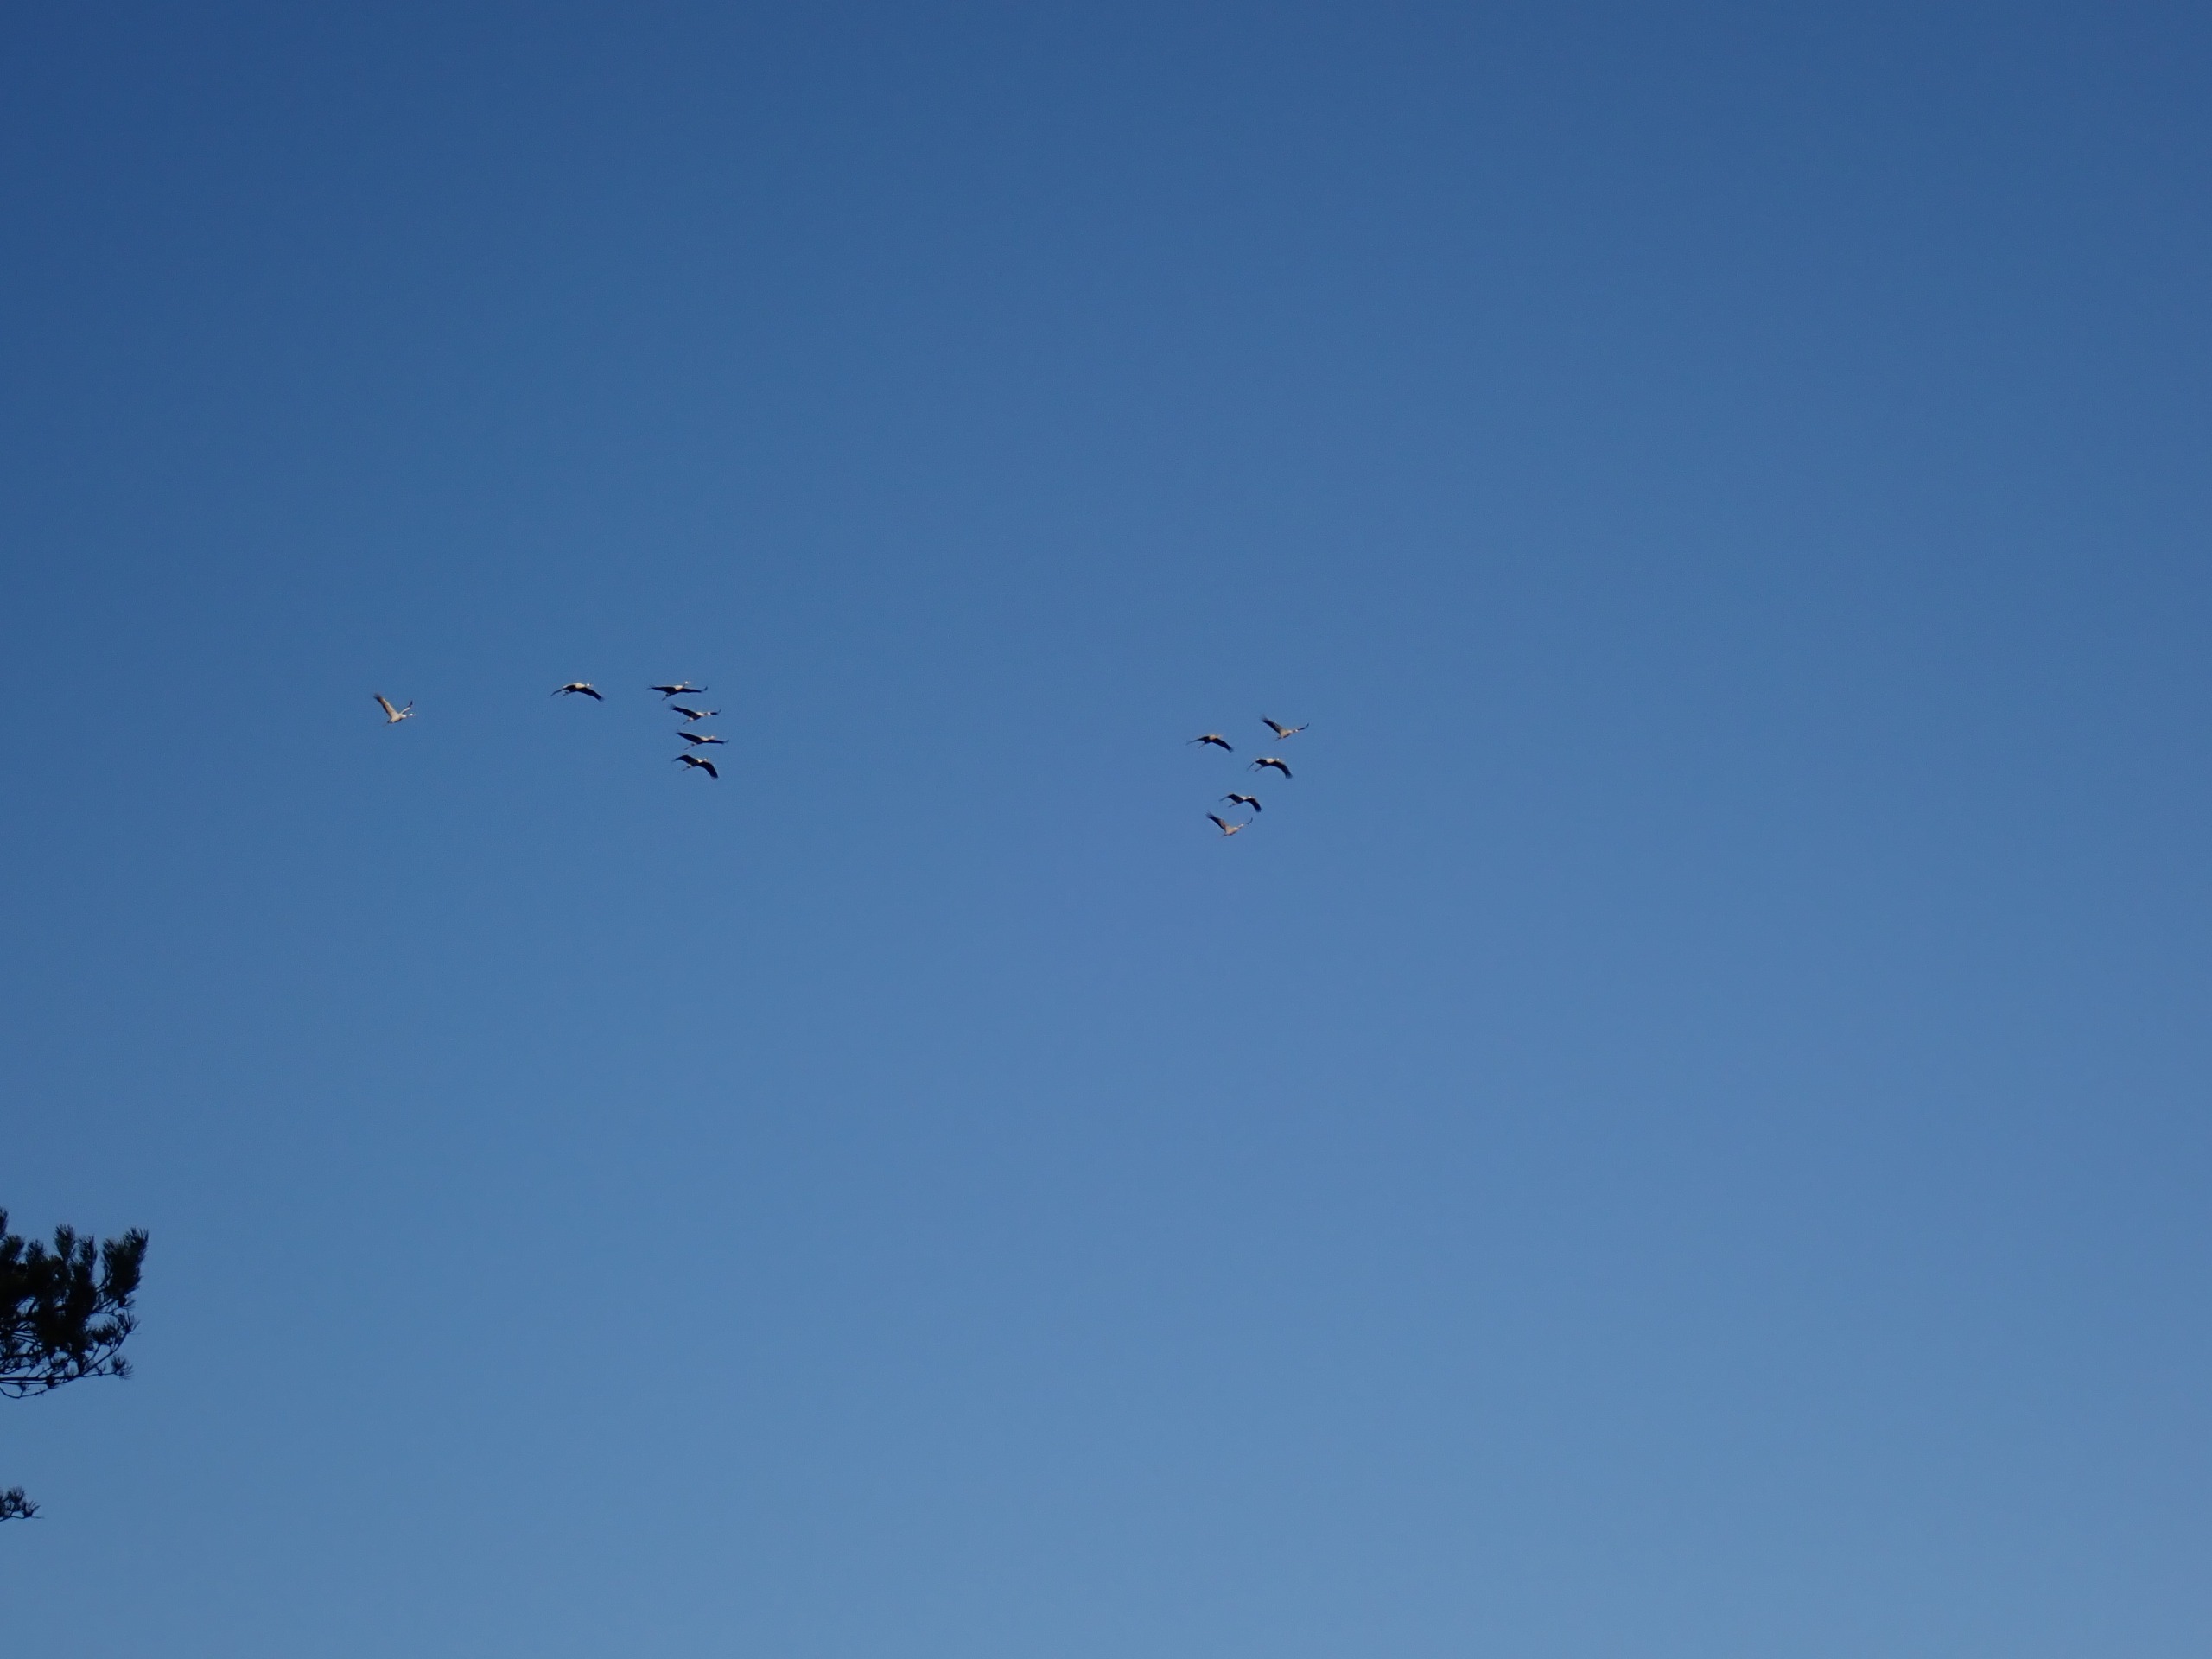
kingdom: Animalia
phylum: Chordata
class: Aves
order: Gruiformes
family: Gruidae
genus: Grus
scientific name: Grus grus
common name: Trane
